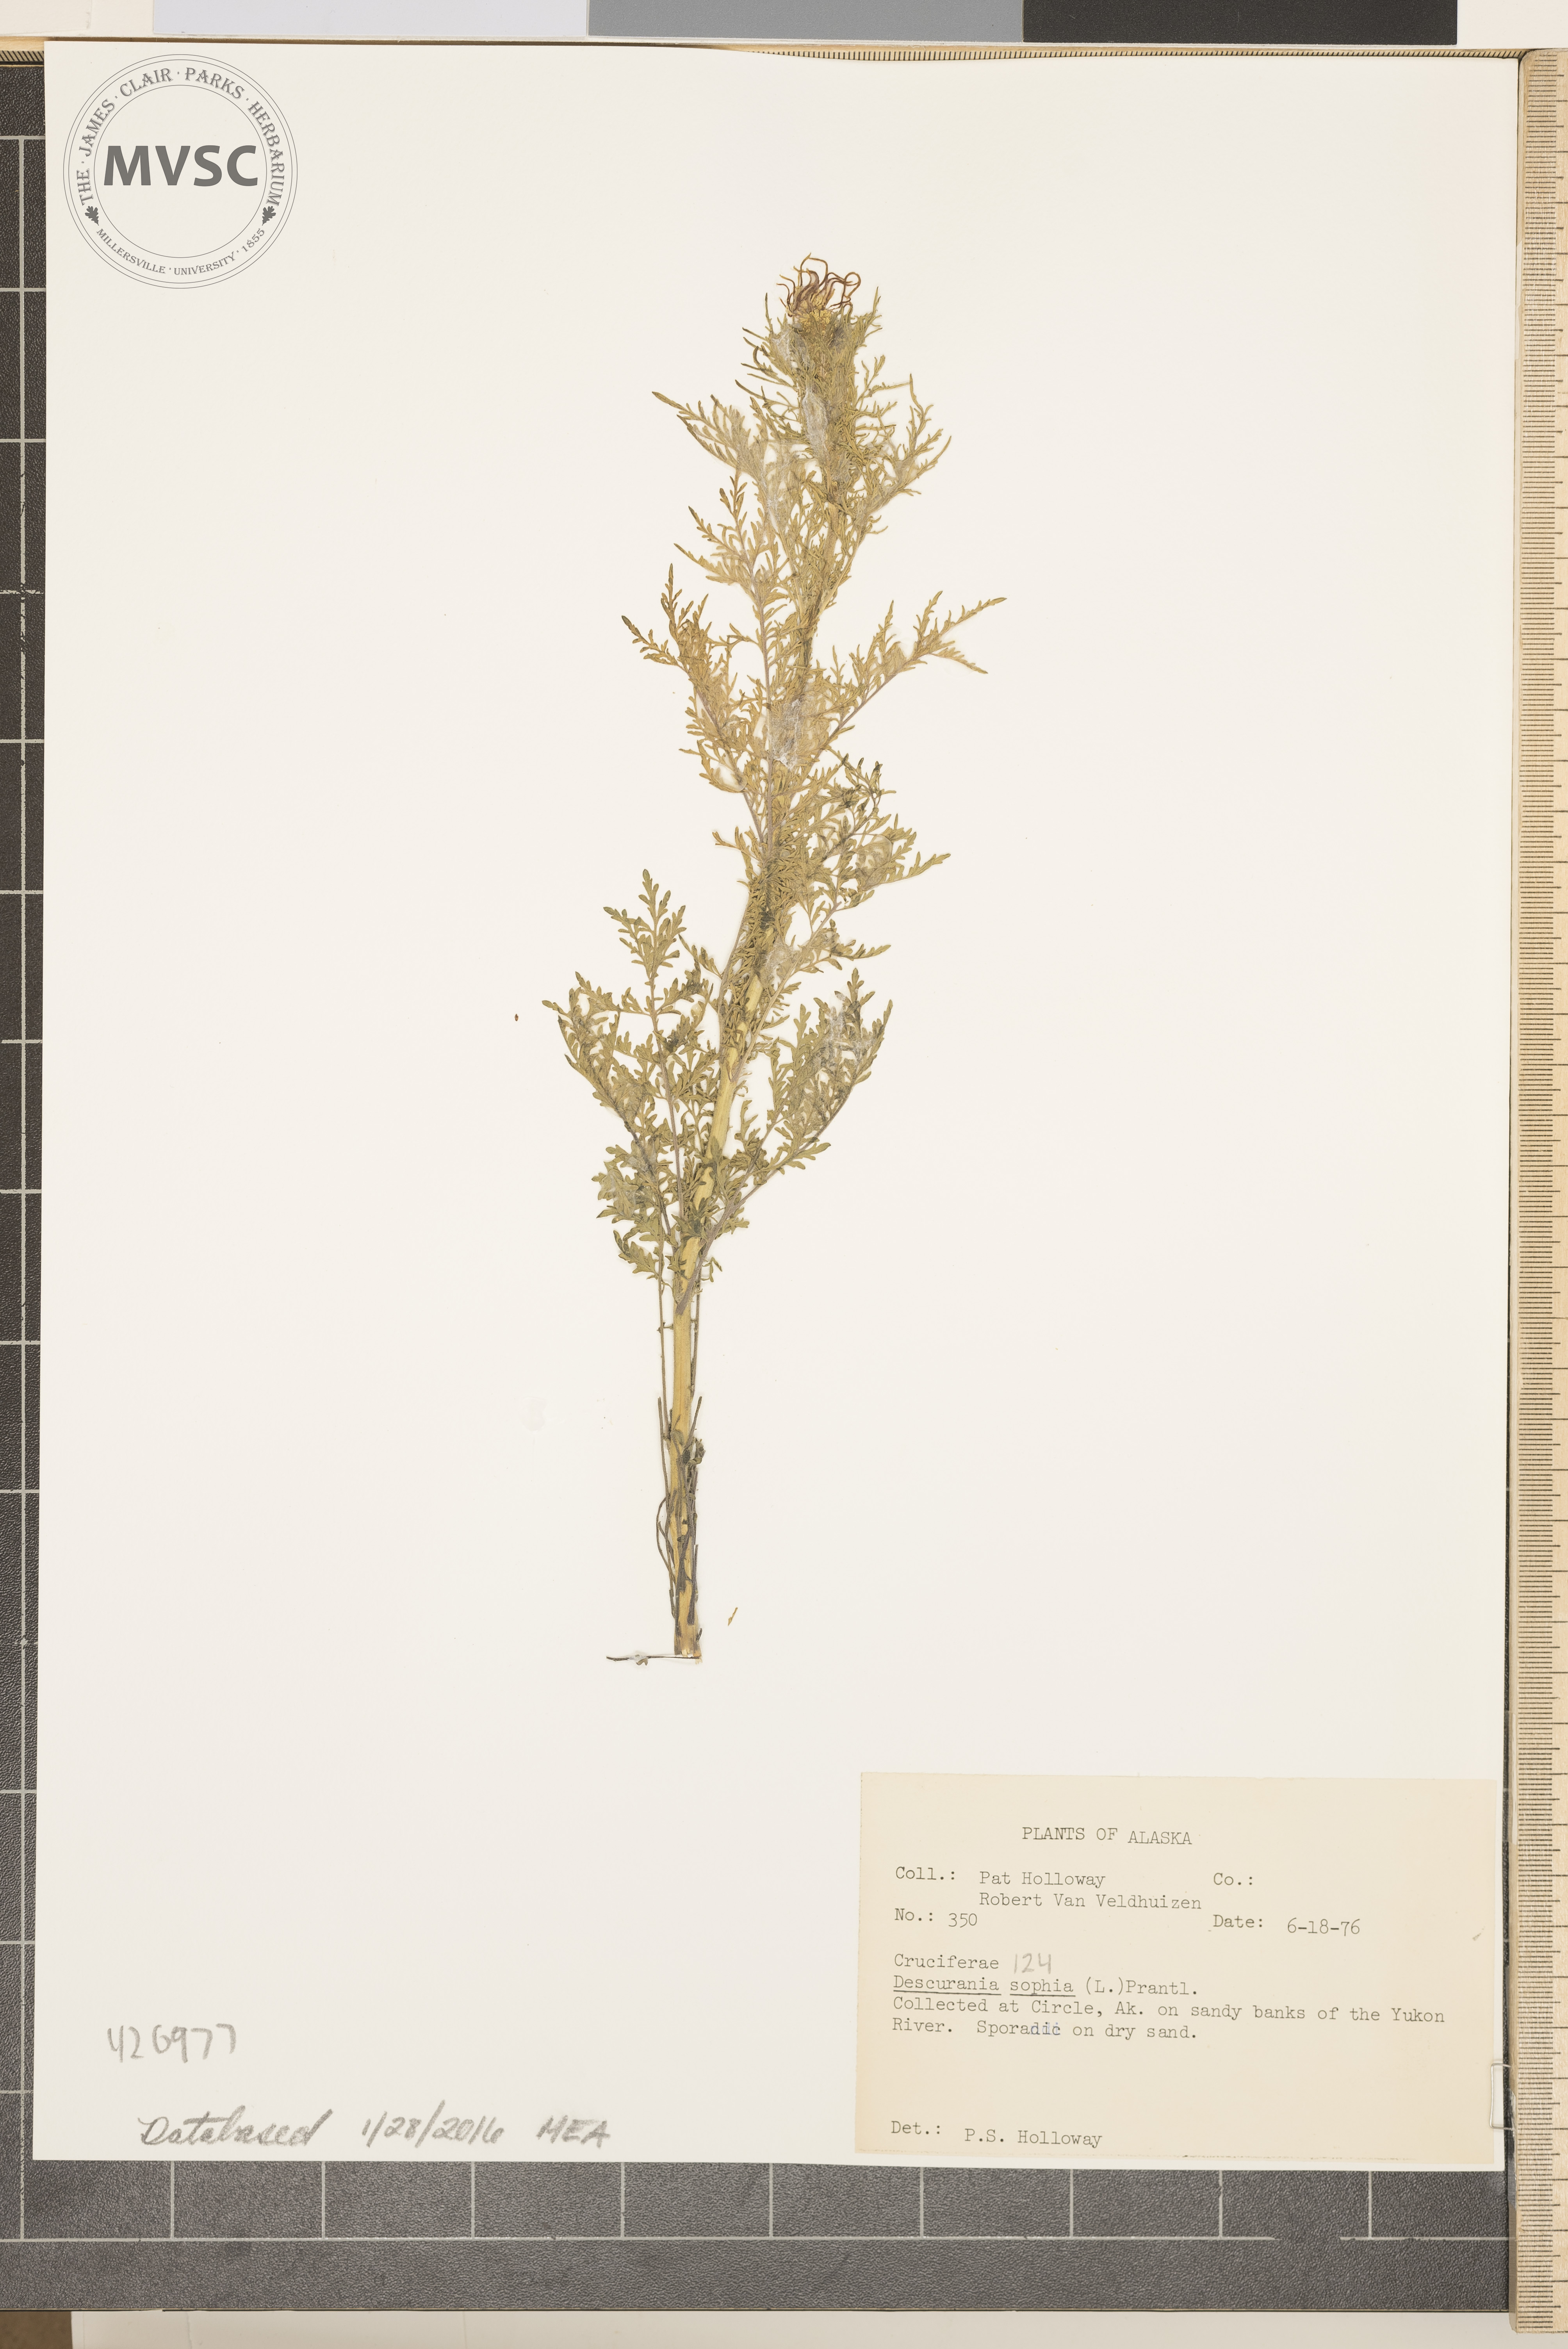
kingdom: Plantae
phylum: Tracheophyta
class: Magnoliopsida
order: Brassicales
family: Brassicaceae
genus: Descurainia
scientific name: Descurainia sophia
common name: Flixweed
